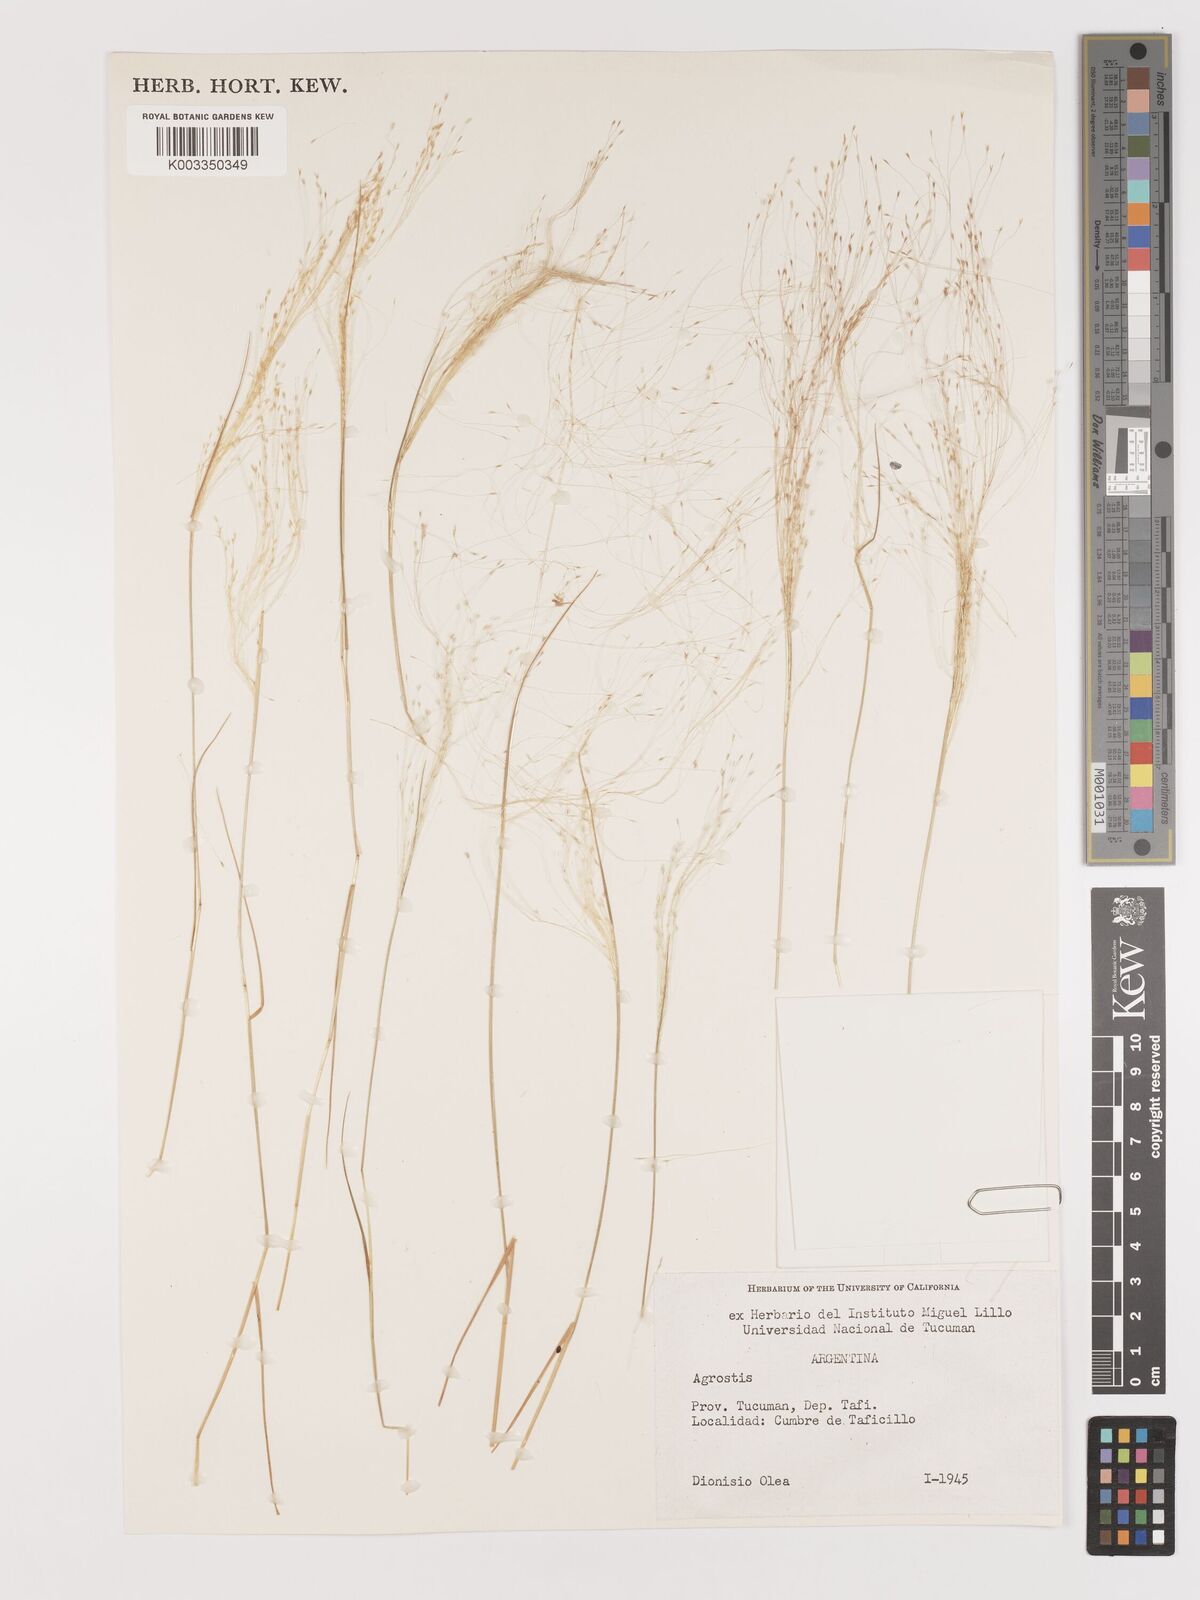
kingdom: Plantae
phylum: Tracheophyta
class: Liliopsida
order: Poales
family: Poaceae
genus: Agrostis
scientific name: Agrostis
